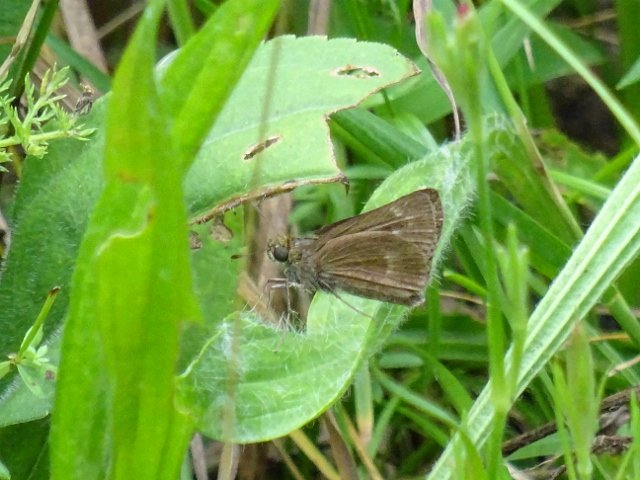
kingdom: Animalia
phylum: Arthropoda
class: Insecta
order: Lepidoptera
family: Hesperiidae
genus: Polites
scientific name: Polites egeremet
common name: Northern Broken-Dash
